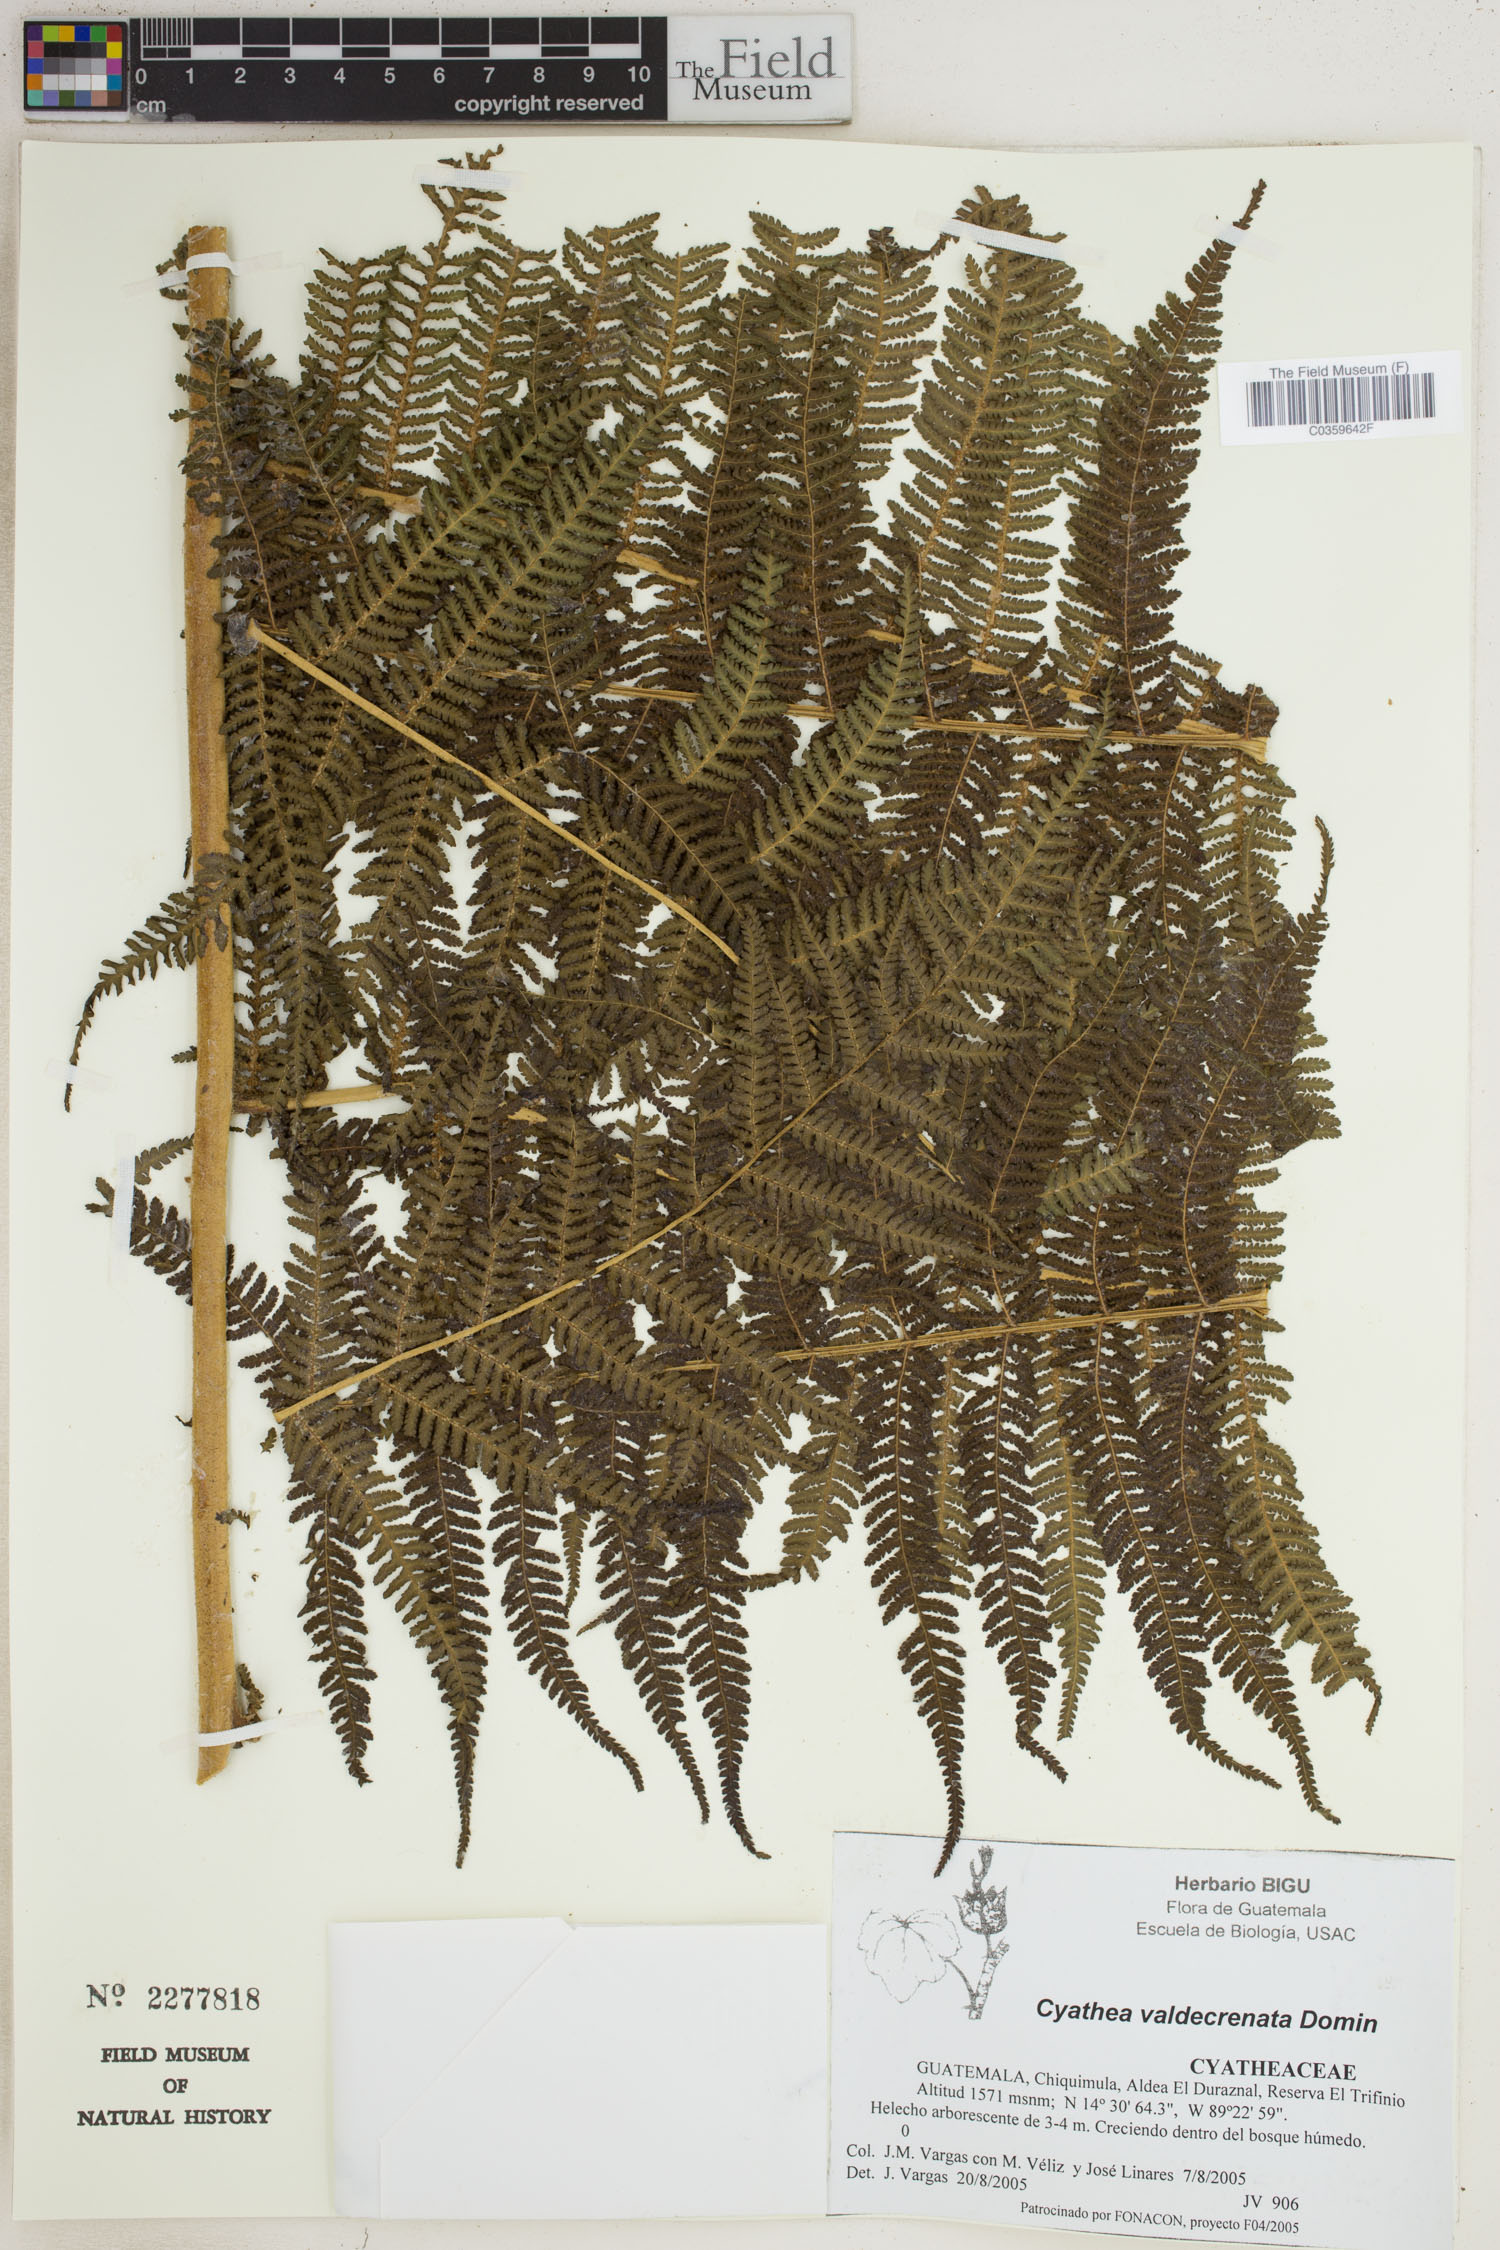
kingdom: Plantae
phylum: Tracheophyta
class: Polypodiopsida
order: Cyatheales
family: Cyatheaceae
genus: Cyathea
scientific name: Cyathea godmanii
